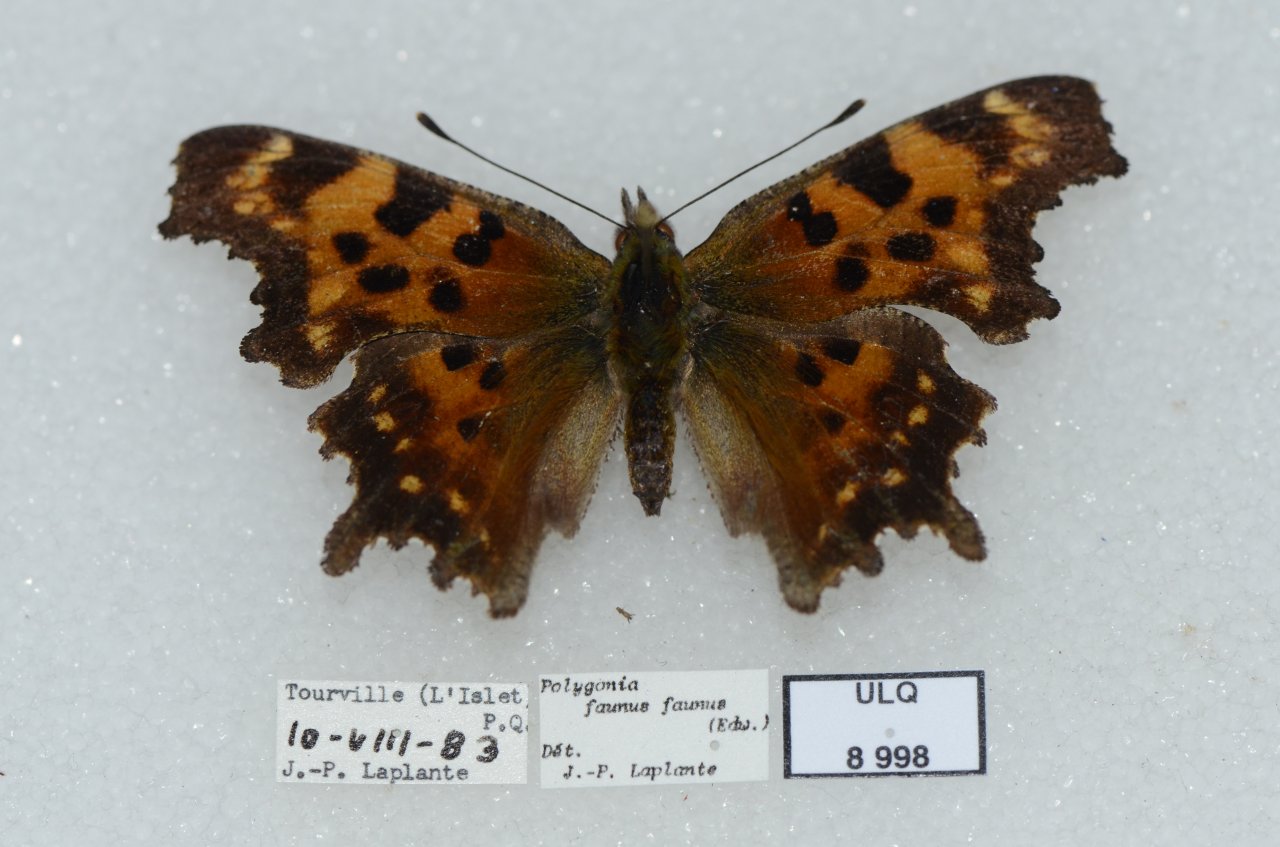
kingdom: Animalia
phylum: Arthropoda
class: Insecta
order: Lepidoptera
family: Nymphalidae
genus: Polygonia
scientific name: Polygonia faunus
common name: Green Comma
